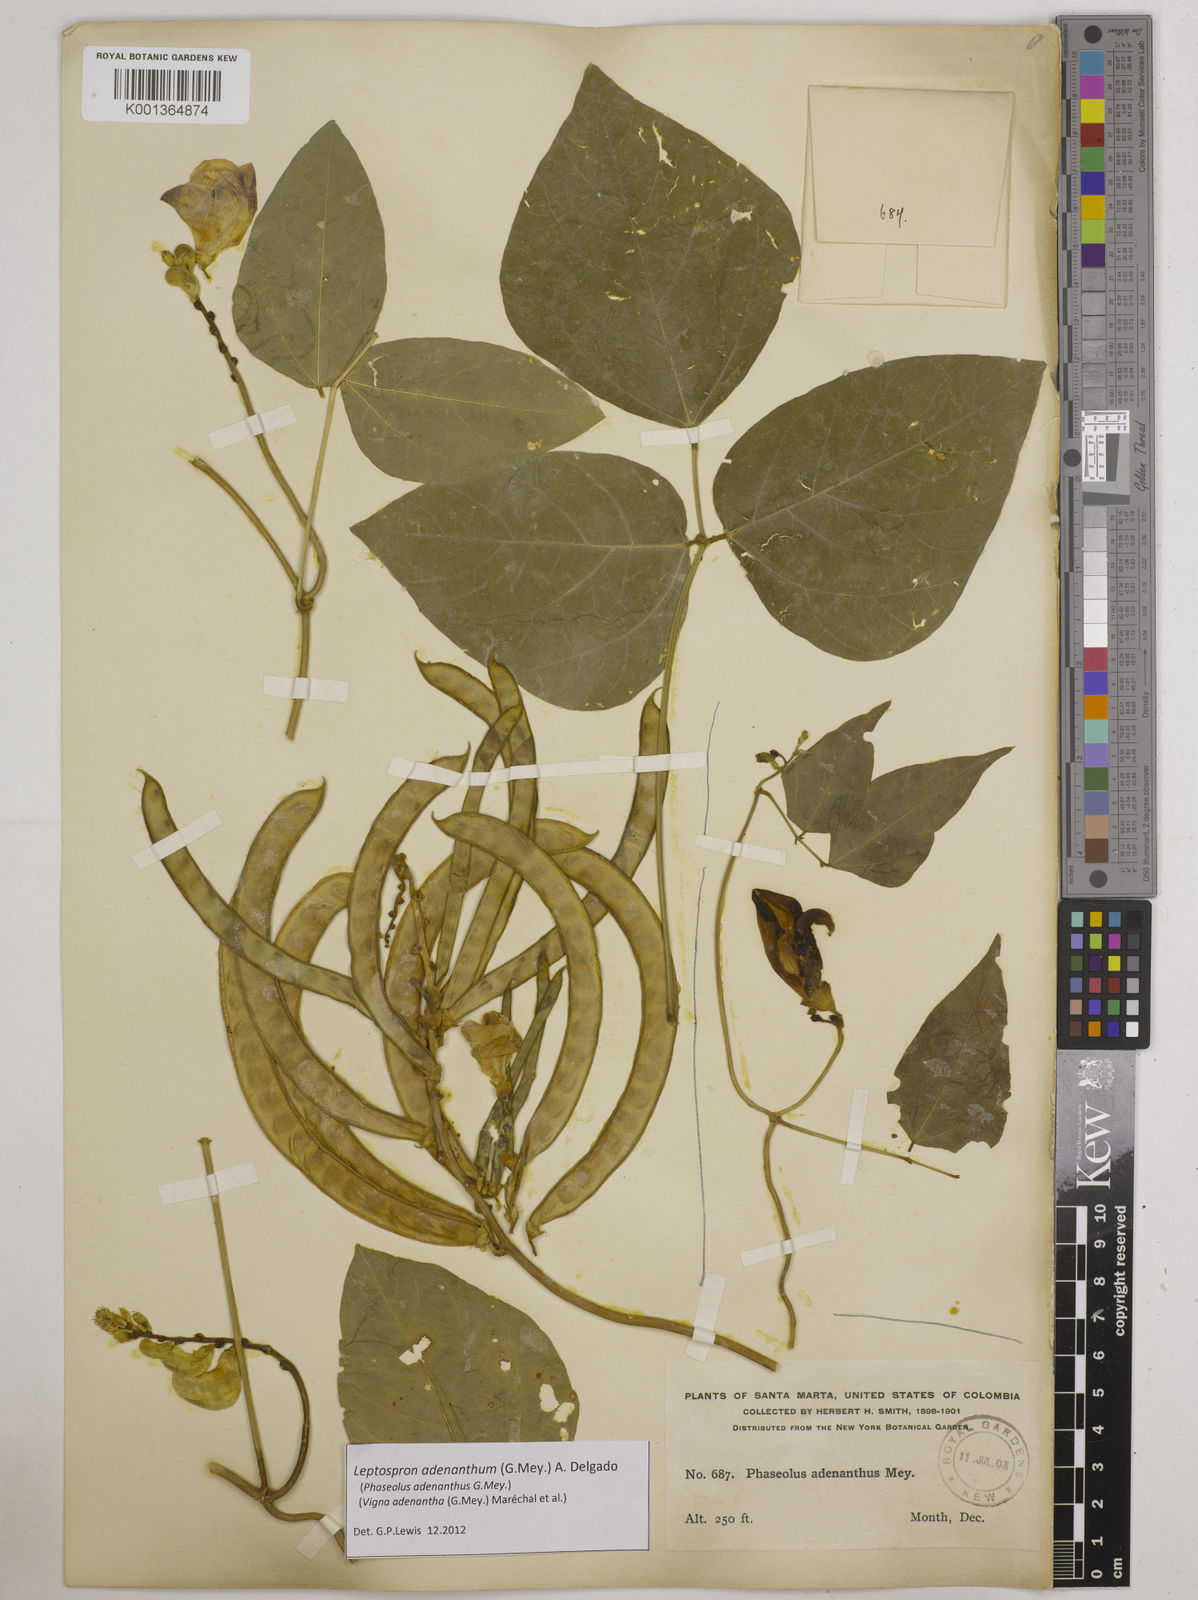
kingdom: Plantae
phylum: Tracheophyta
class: Magnoliopsida
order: Fabales
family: Fabaceae
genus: Leptospron
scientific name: Leptospron adenanthum
